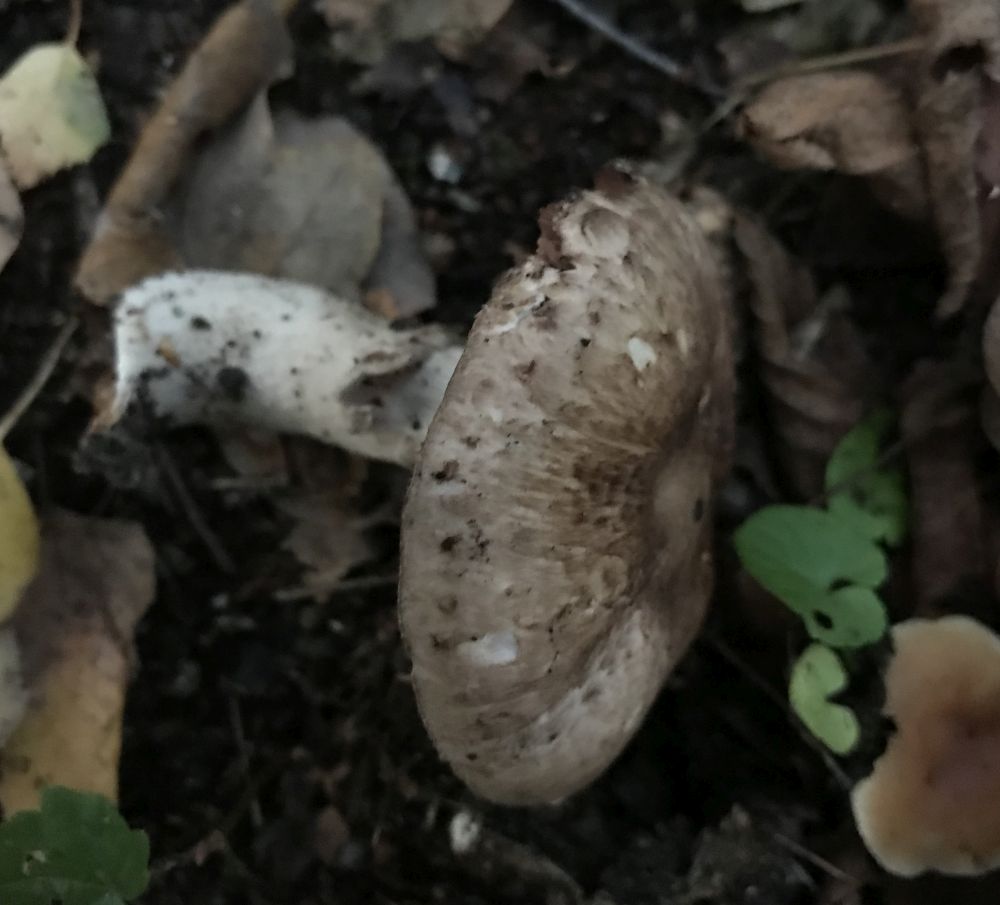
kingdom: Fungi
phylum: Basidiomycota
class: Agaricomycetes
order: Agaricales
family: Agaricaceae
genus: Agaricus
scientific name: Agaricus
